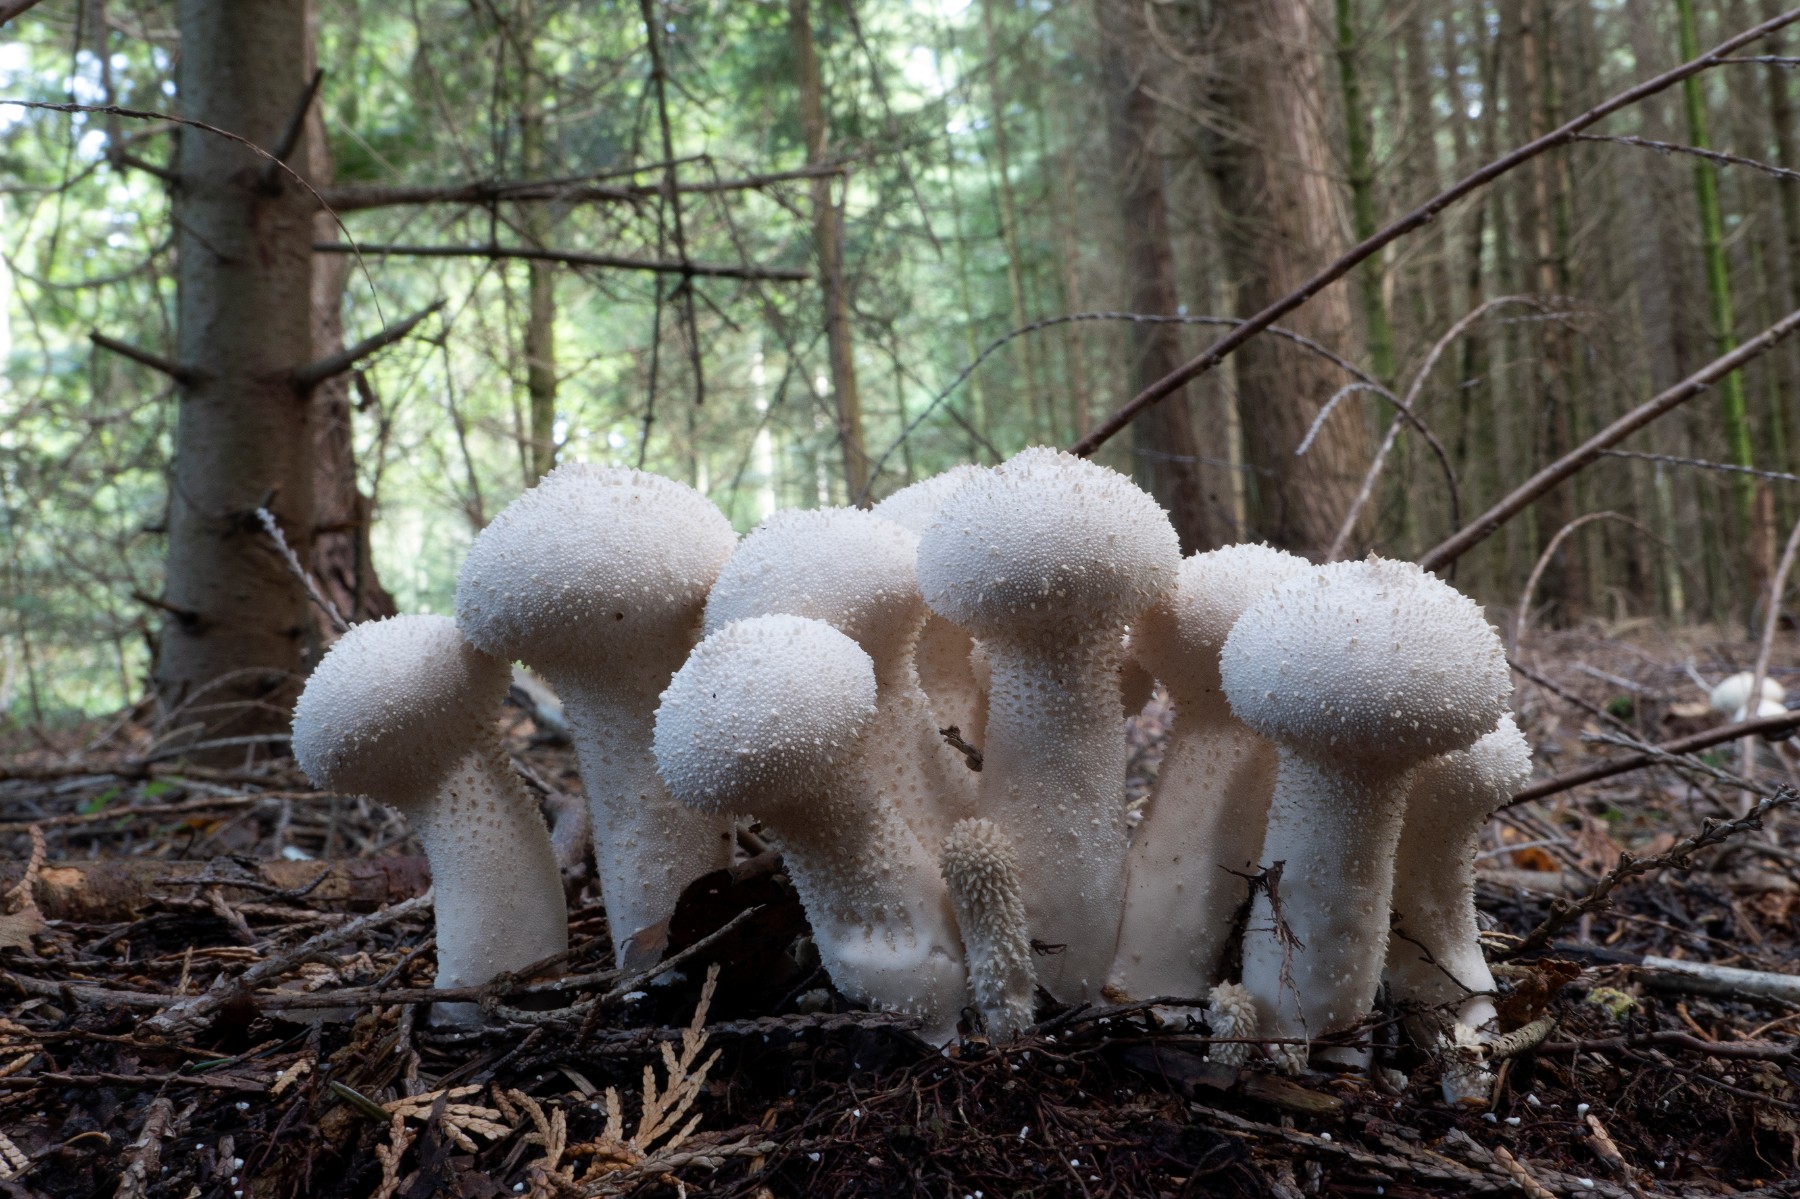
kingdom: Fungi
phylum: Basidiomycota
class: Agaricomycetes
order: Agaricales
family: Lycoperdaceae
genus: Lycoperdon
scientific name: Lycoperdon perlatum
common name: krystal-støvbold
